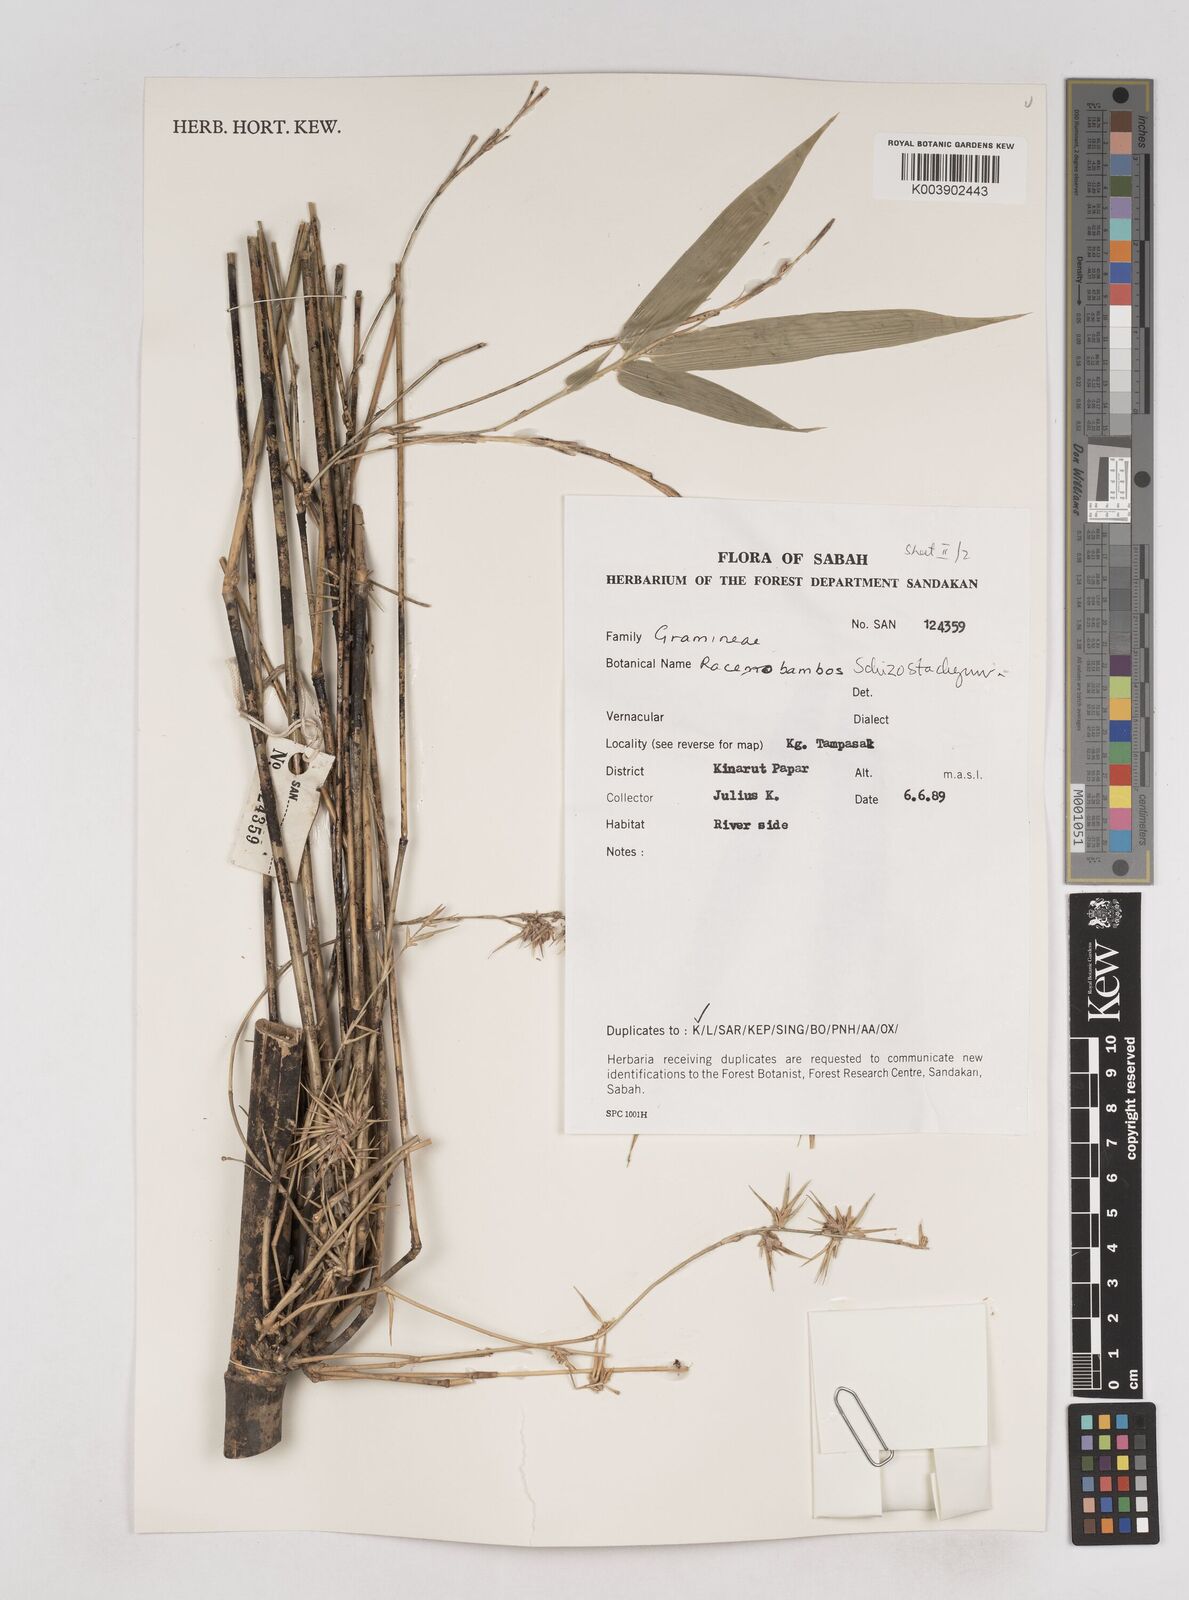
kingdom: Plantae
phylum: Tracheophyta
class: Liliopsida
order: Poales
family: Poaceae
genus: Schizostachyum
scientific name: Schizostachyum
